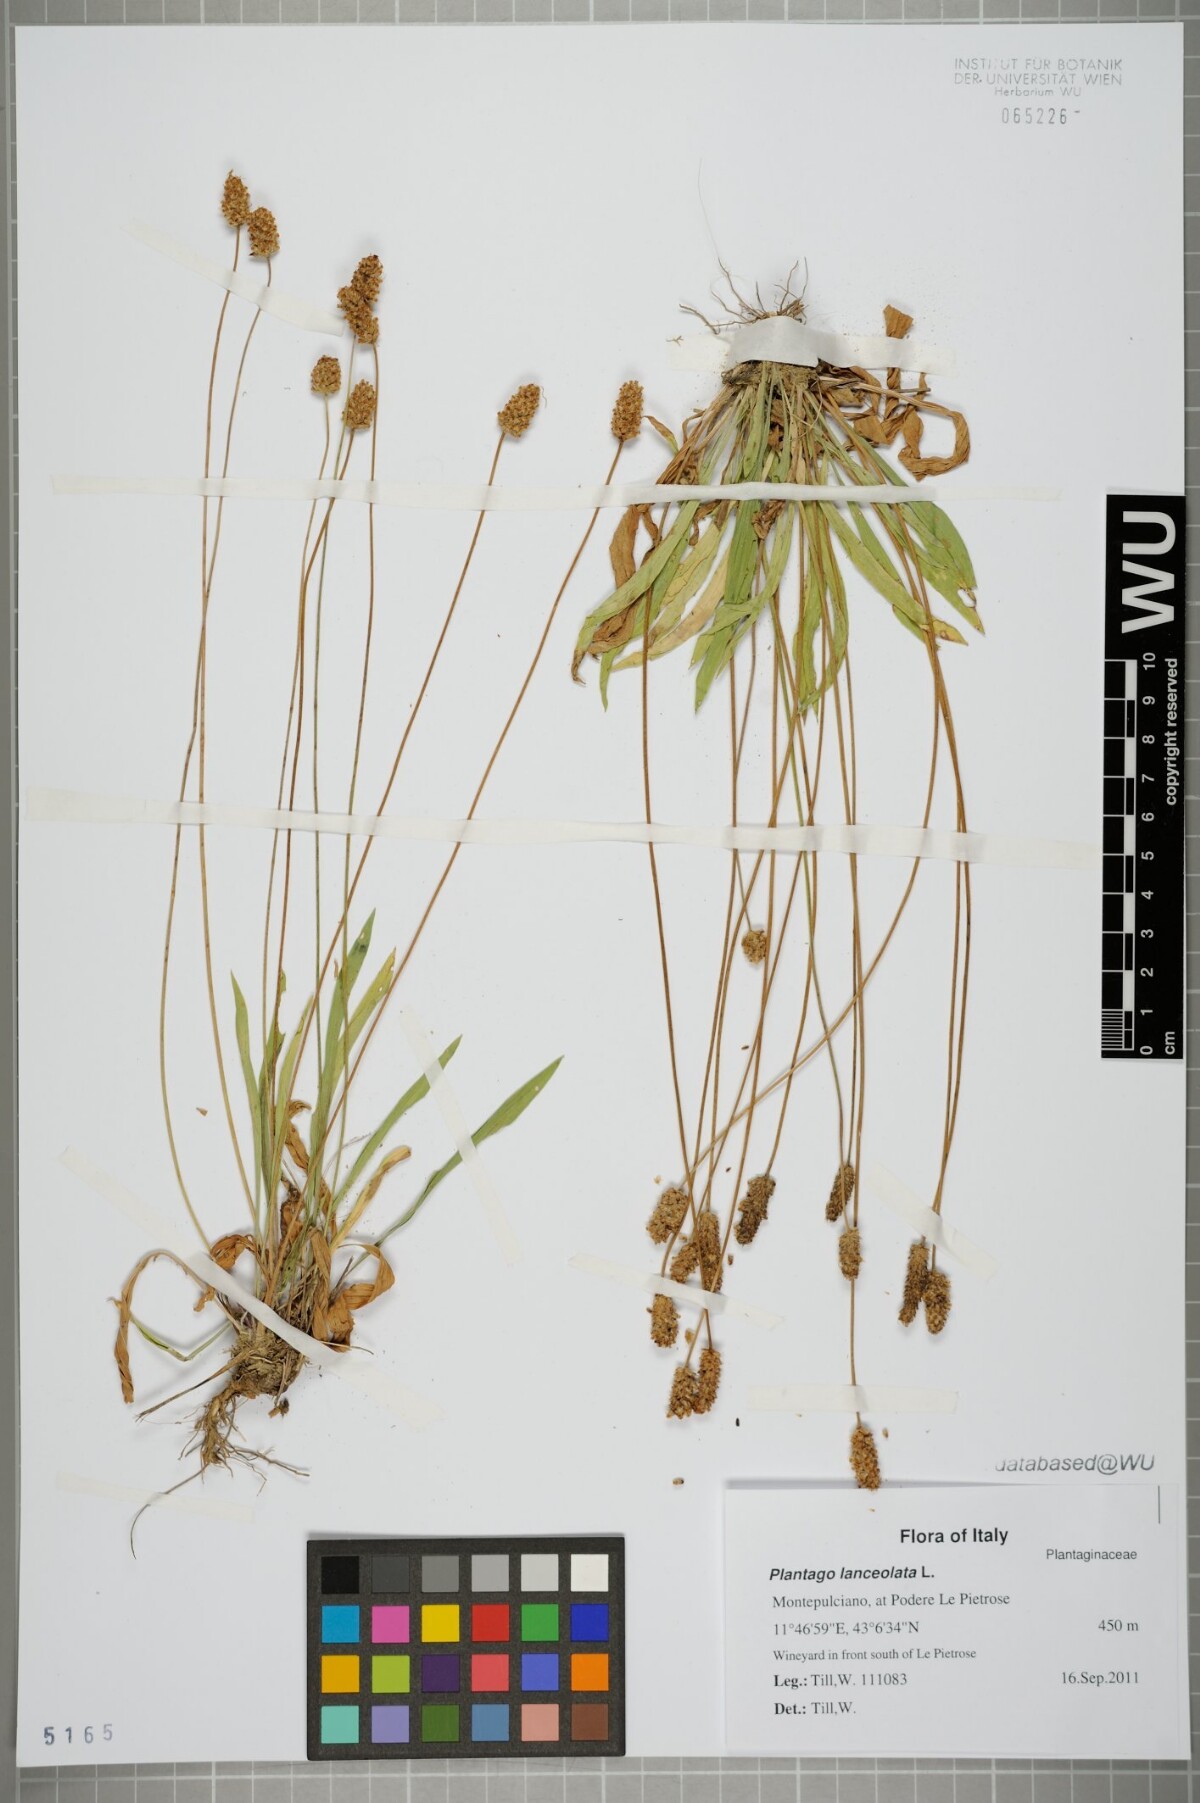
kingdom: Plantae
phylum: Tracheophyta
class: Magnoliopsida
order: Lamiales
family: Plantaginaceae
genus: Plantago
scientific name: Plantago lanceolata
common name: Ribwort plantain
